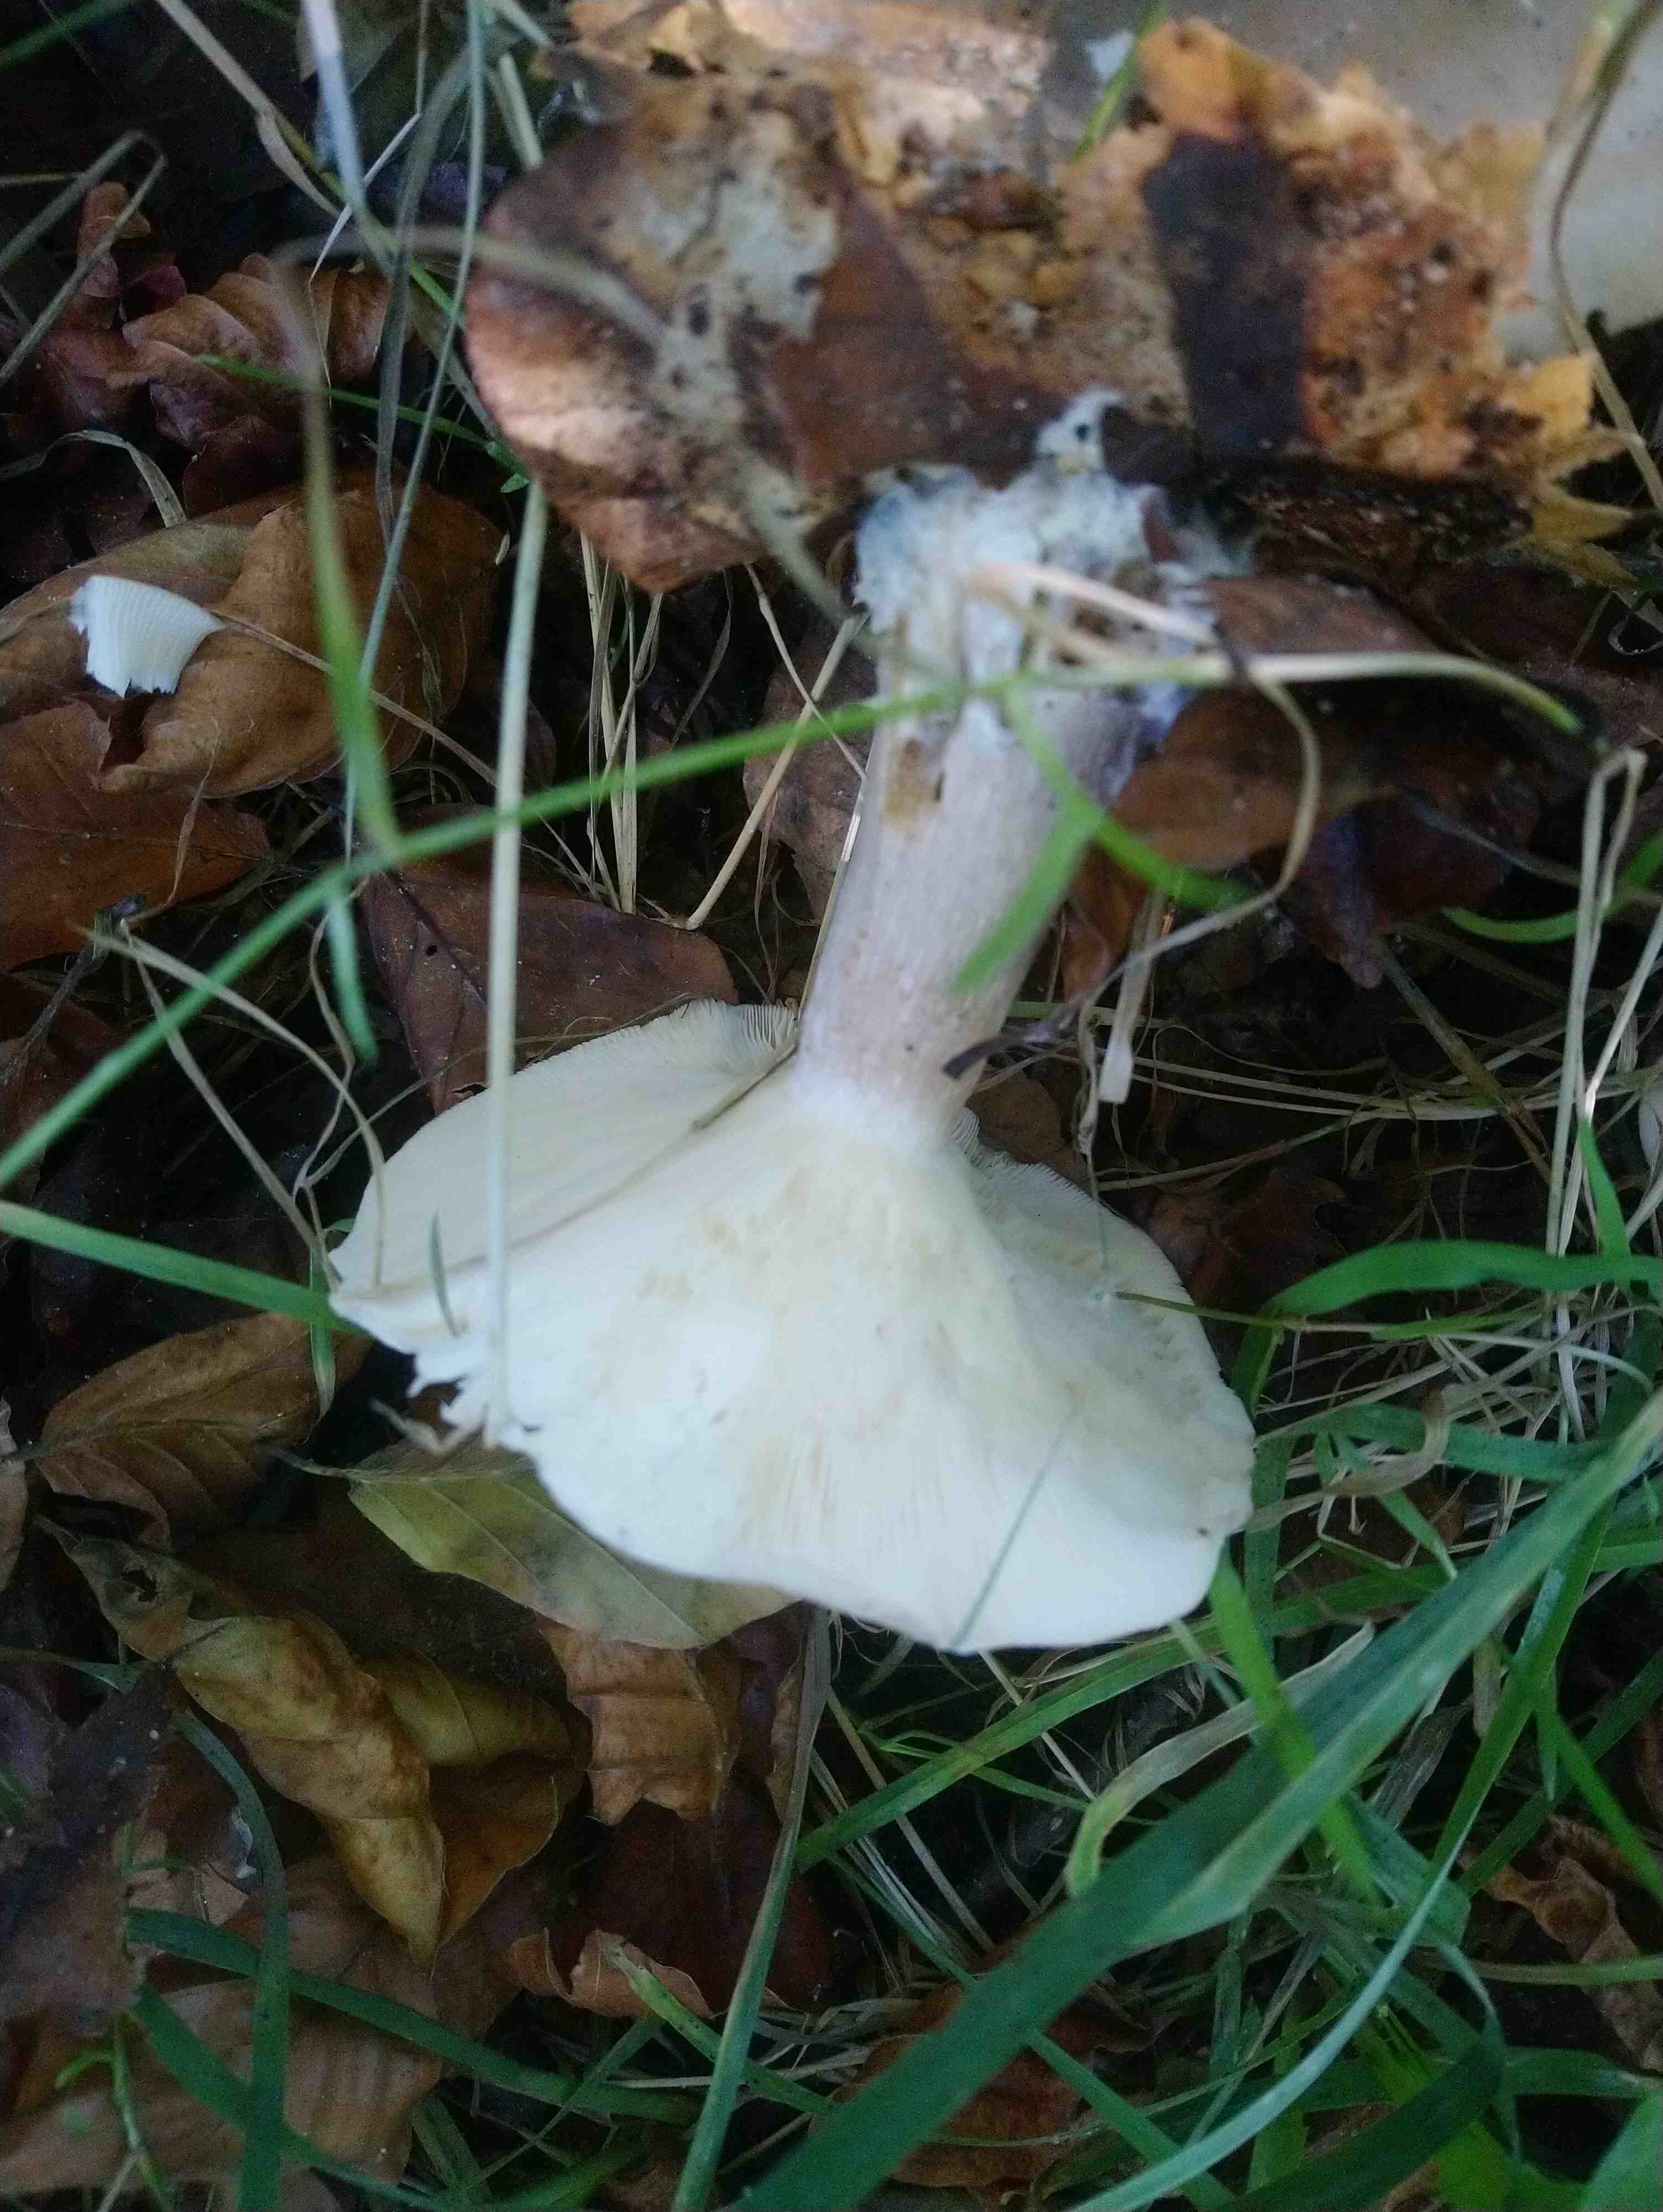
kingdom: Fungi
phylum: Basidiomycota
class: Agaricomycetes
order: Agaricales
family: Tricholomataceae
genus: Clitocybe
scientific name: Clitocybe nebularis
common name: tåge-tragthat
